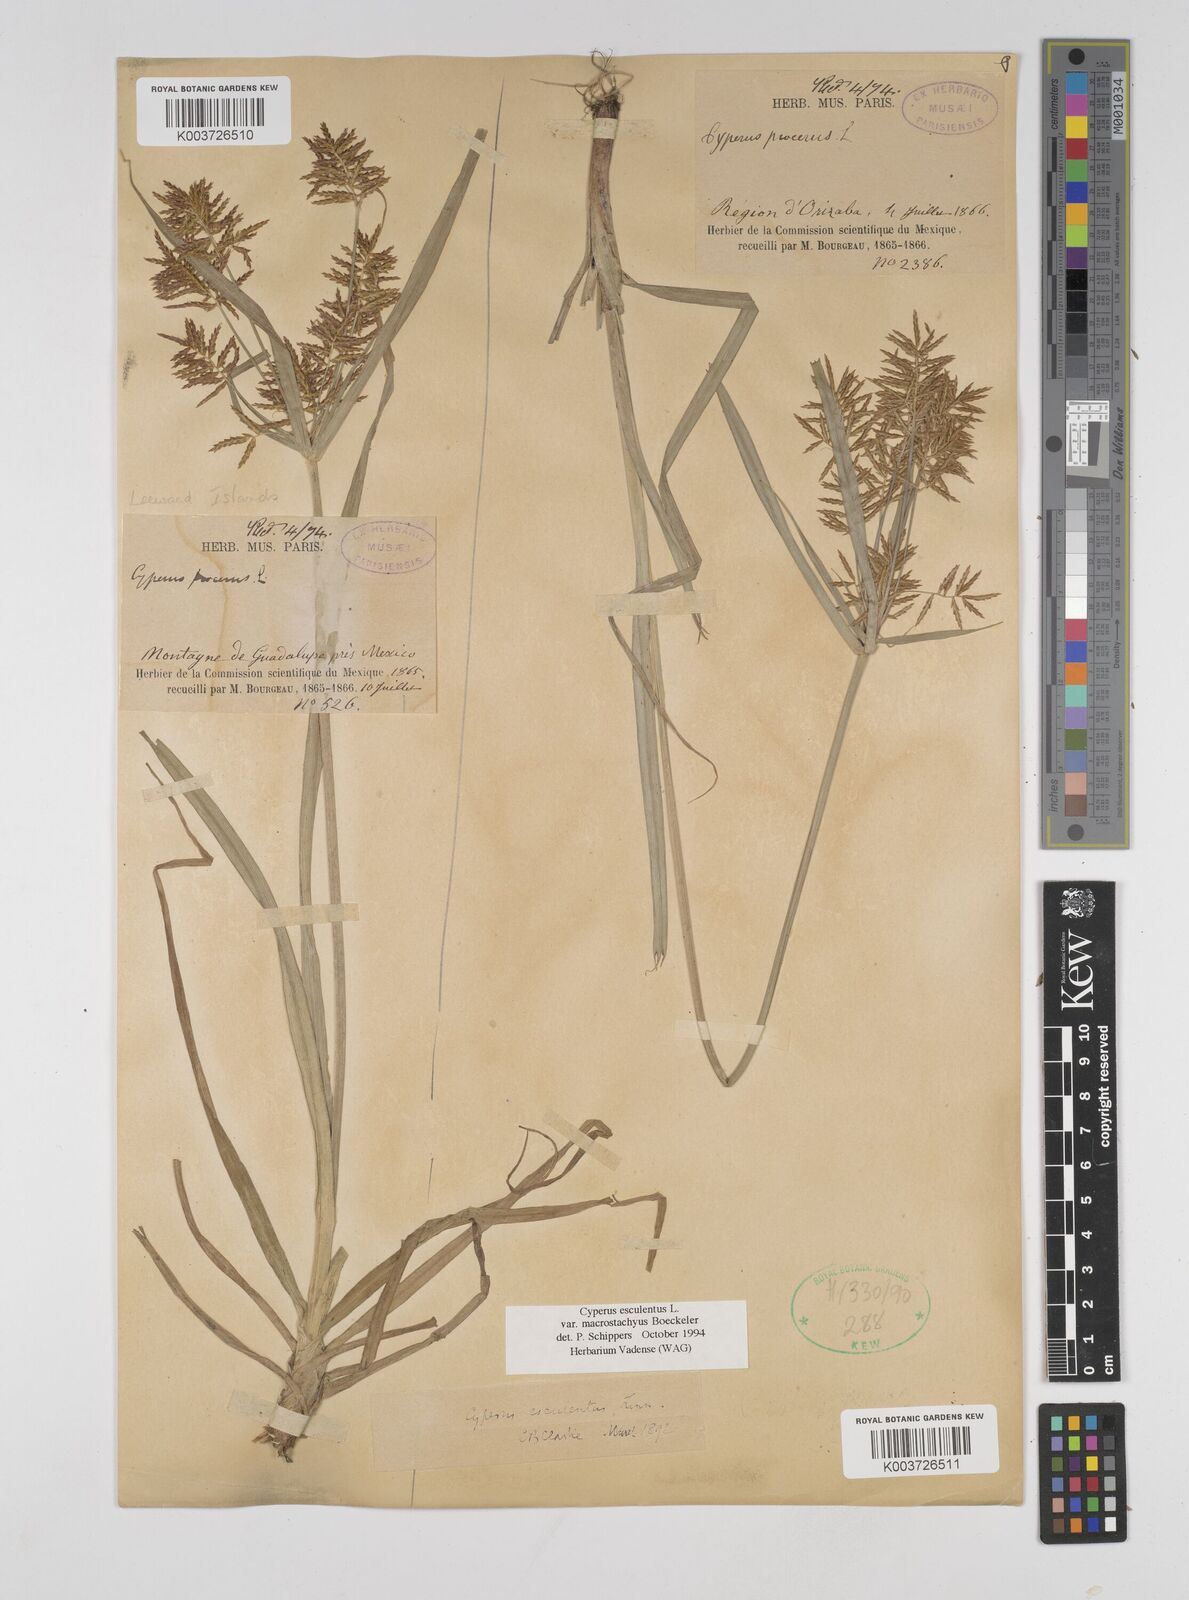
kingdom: Plantae
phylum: Tracheophyta
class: Liliopsida
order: Poales
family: Cyperaceae
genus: Cyperus
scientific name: Cyperus esculentus
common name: Yellow nutsedge
